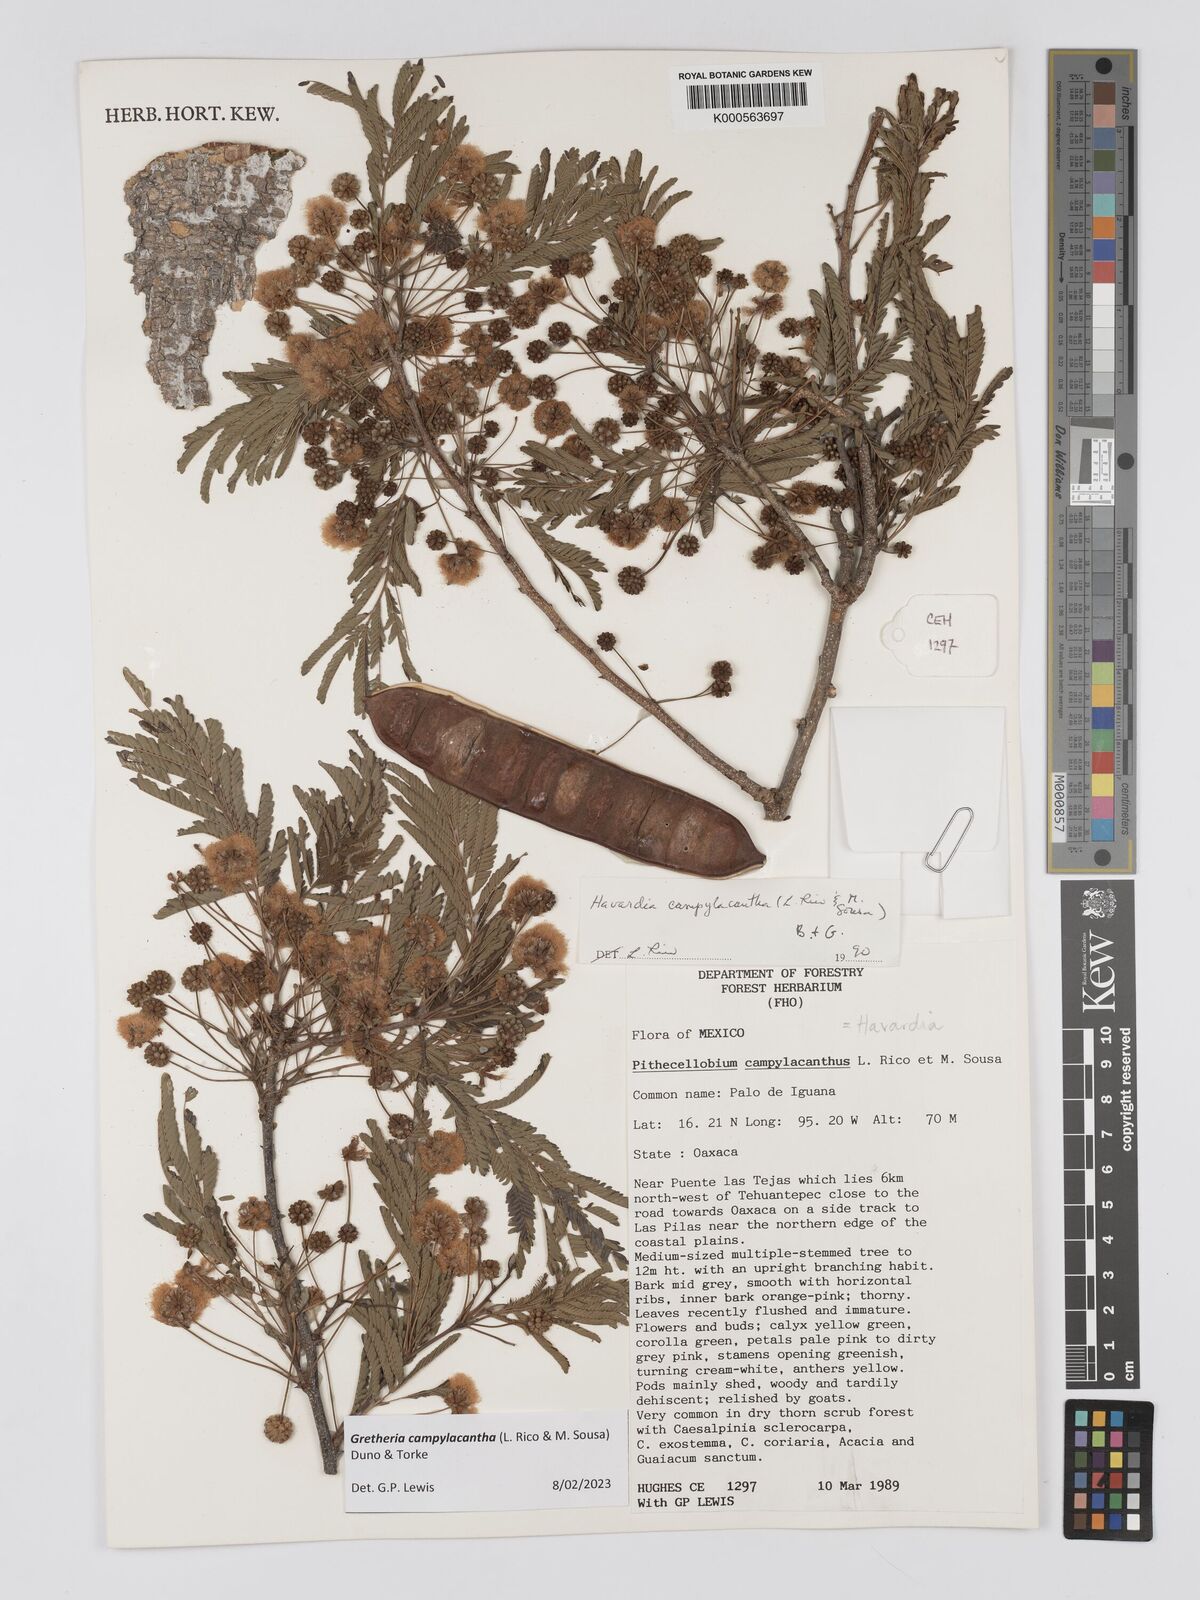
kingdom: Plantae
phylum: Tracheophyta
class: Magnoliopsida
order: Fabales
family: Fabaceae
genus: Havardia
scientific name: Havardia campylacantha
